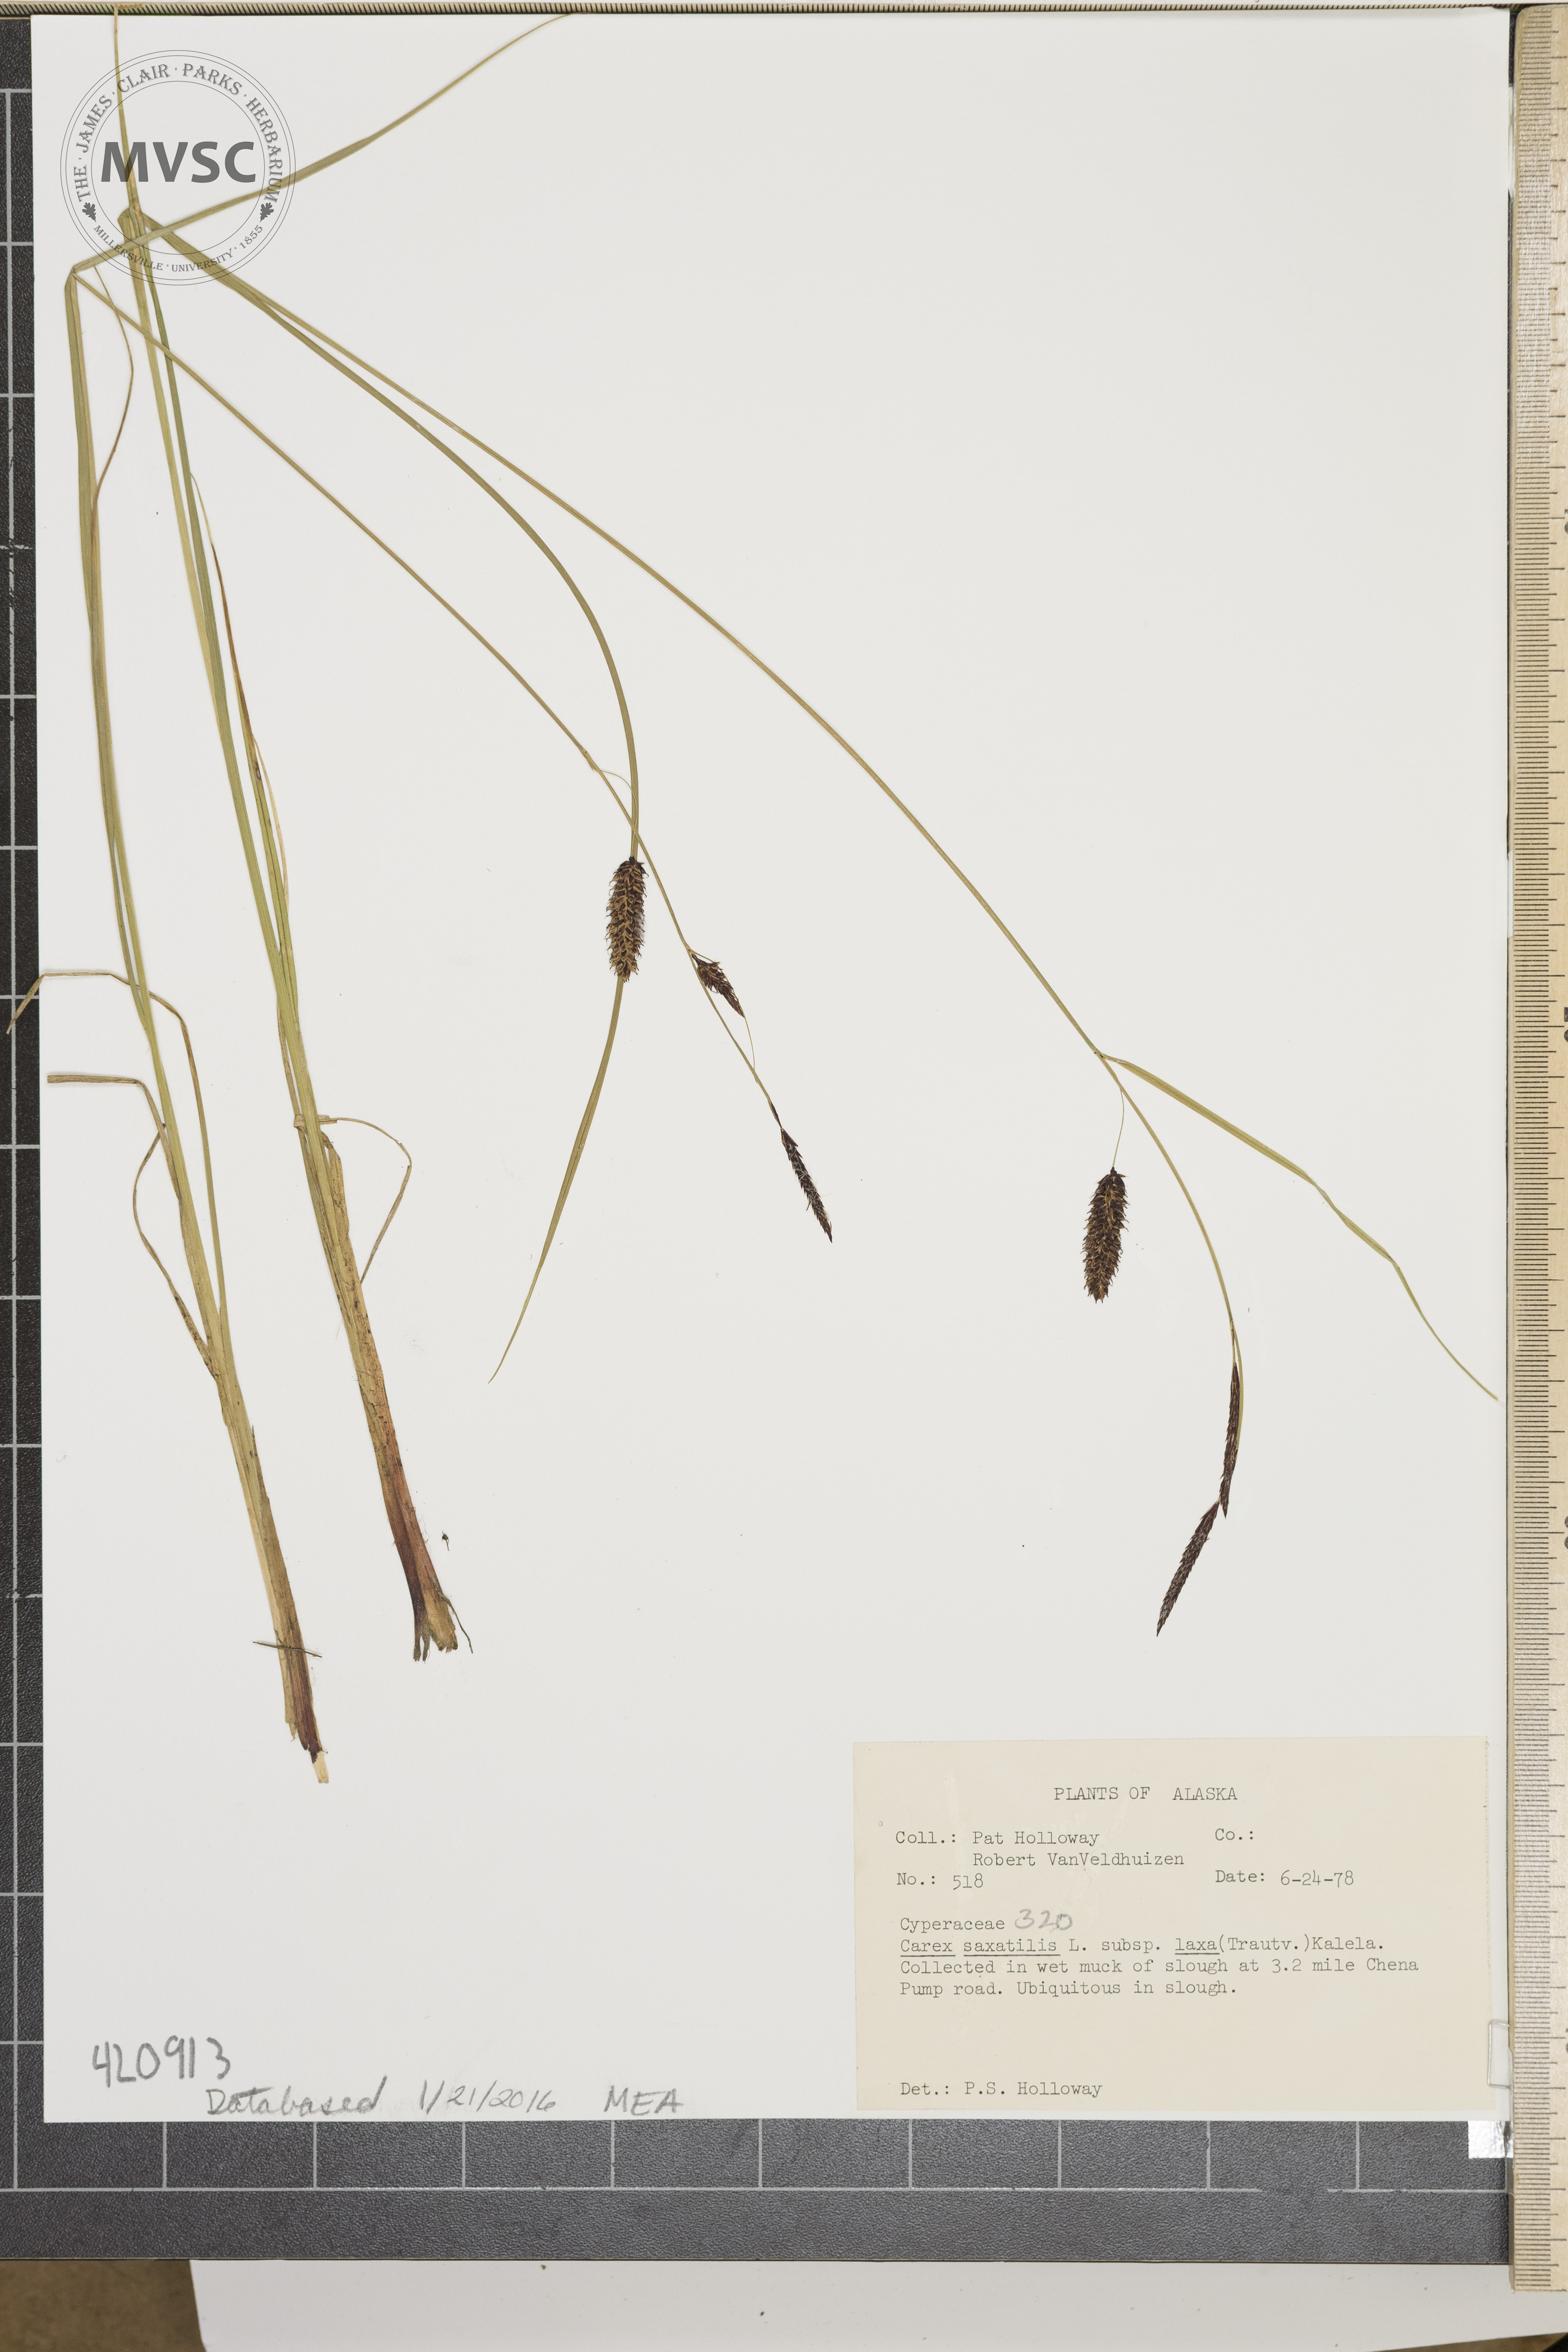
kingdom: Plantae
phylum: Tracheophyta
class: Liliopsida
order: Poales
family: Cyperaceae
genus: Carex
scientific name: Carex saxatilis
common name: Rock sedge
